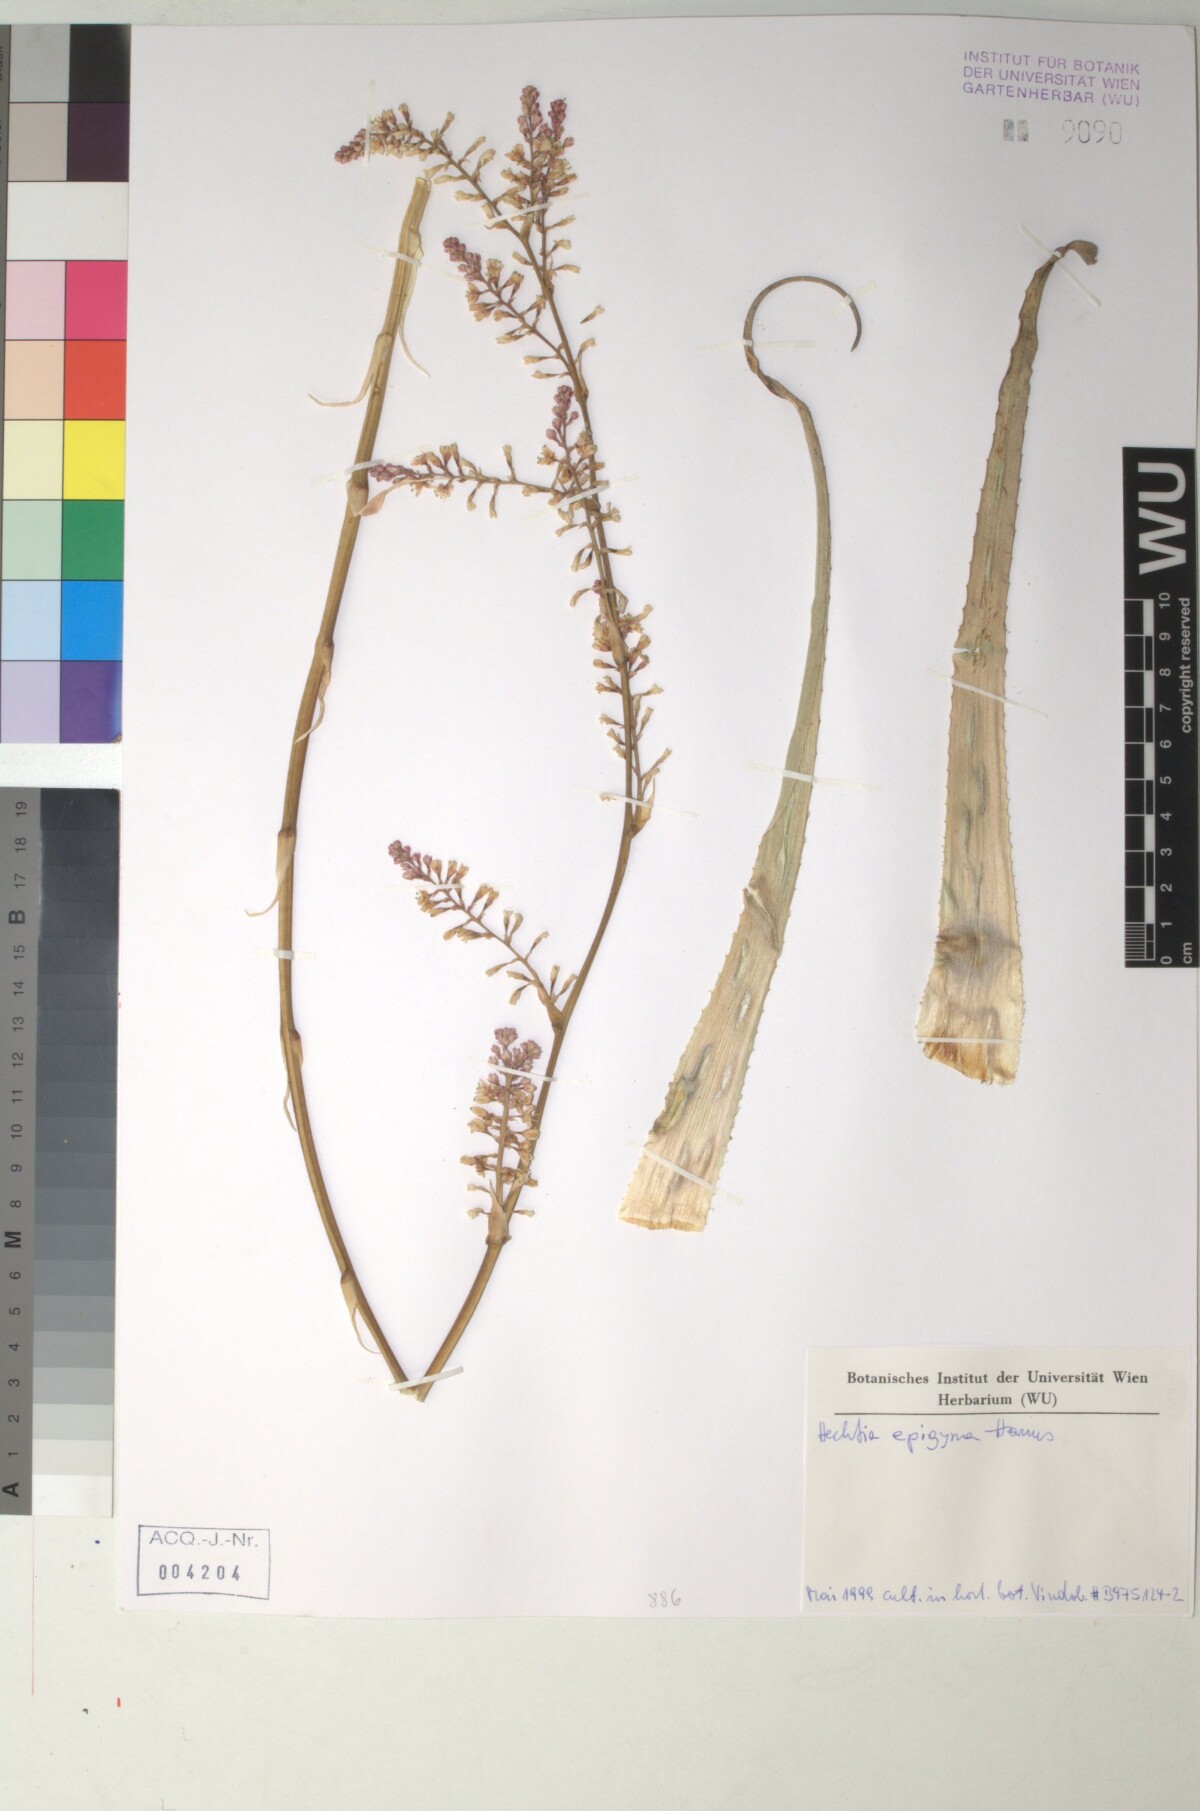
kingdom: Plantae
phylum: Tracheophyta
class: Liliopsida
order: Poales
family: Bromeliaceae
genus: Hechtia
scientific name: Hechtia
